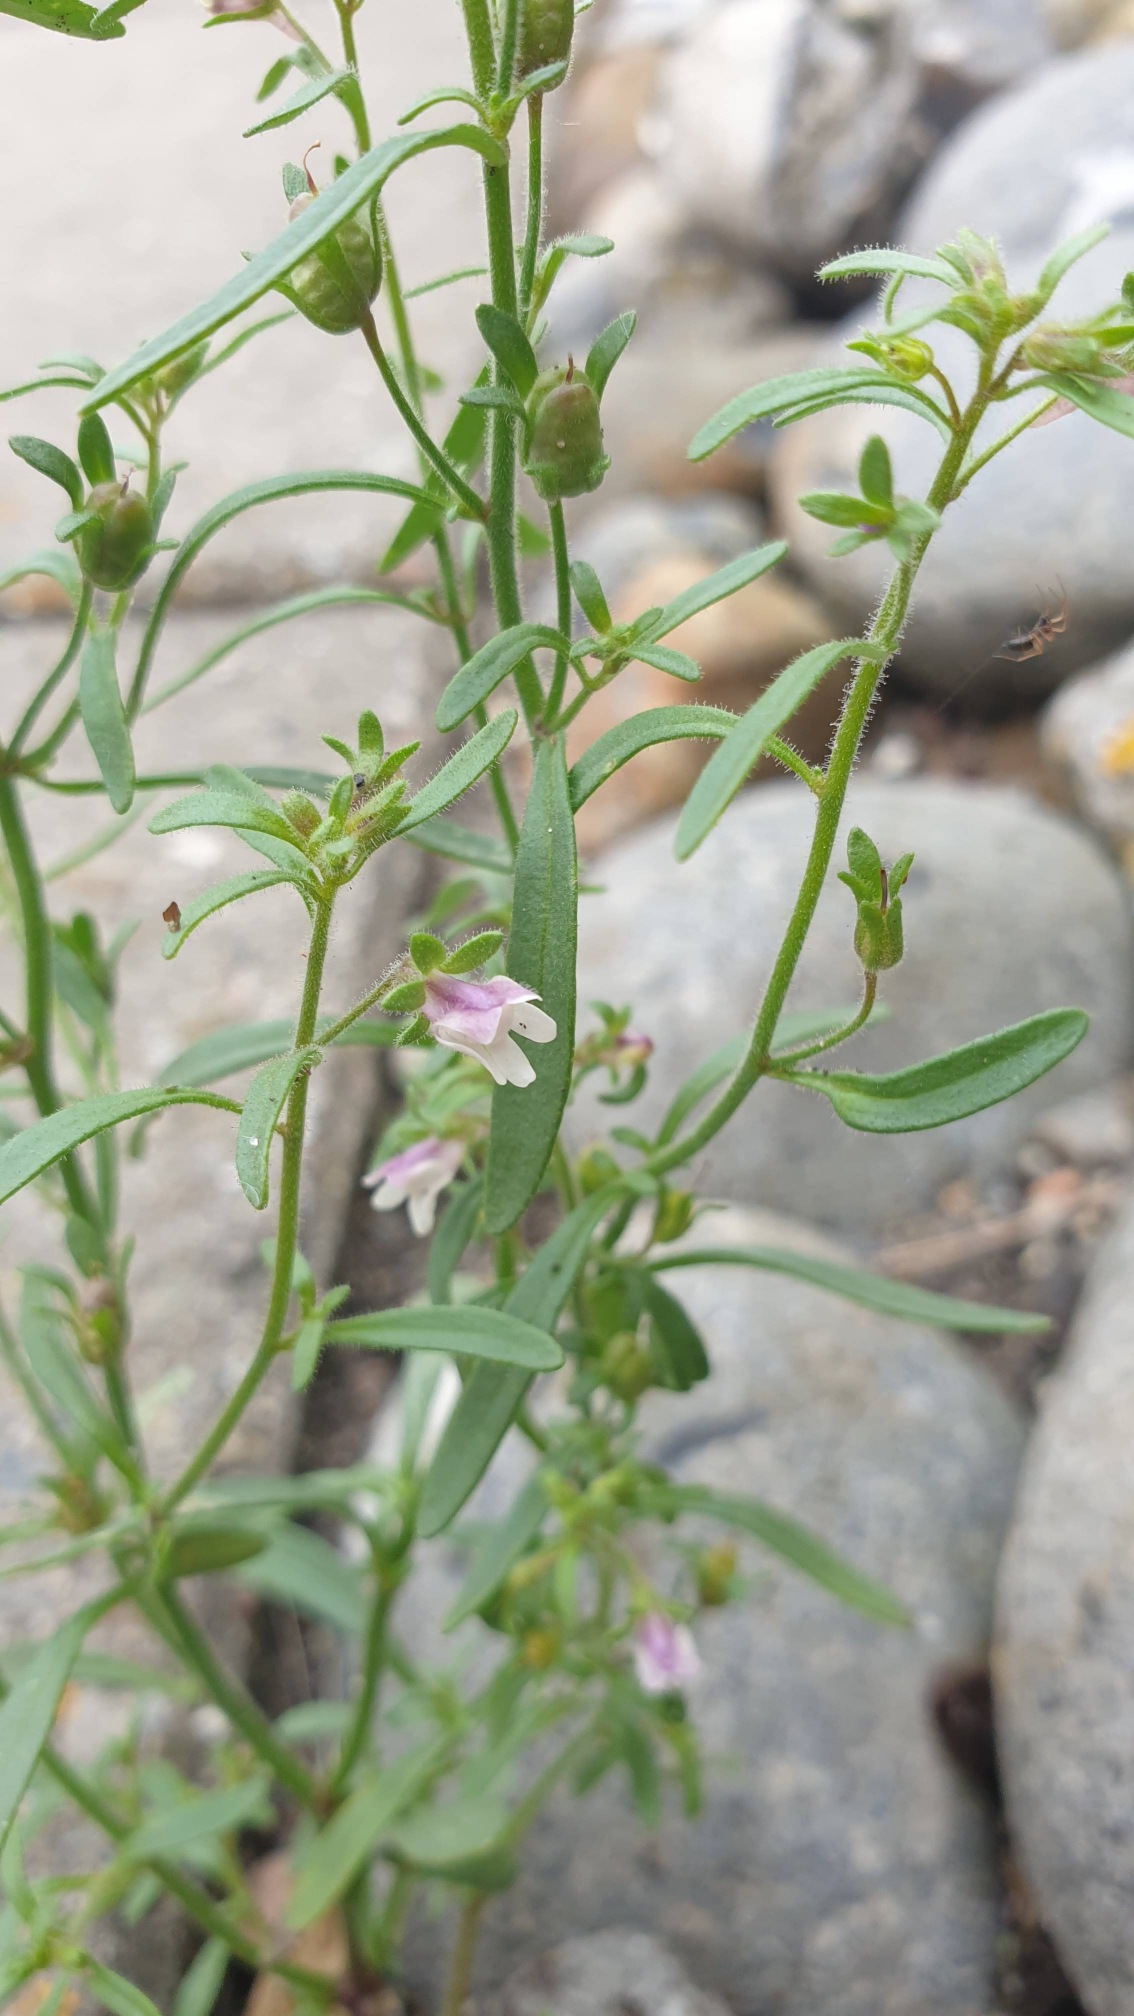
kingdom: Plantae
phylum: Tracheophyta
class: Magnoliopsida
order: Lamiales
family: Plantaginaceae
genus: Chaenorhinum
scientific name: Chaenorhinum minus
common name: Liden torskemund
